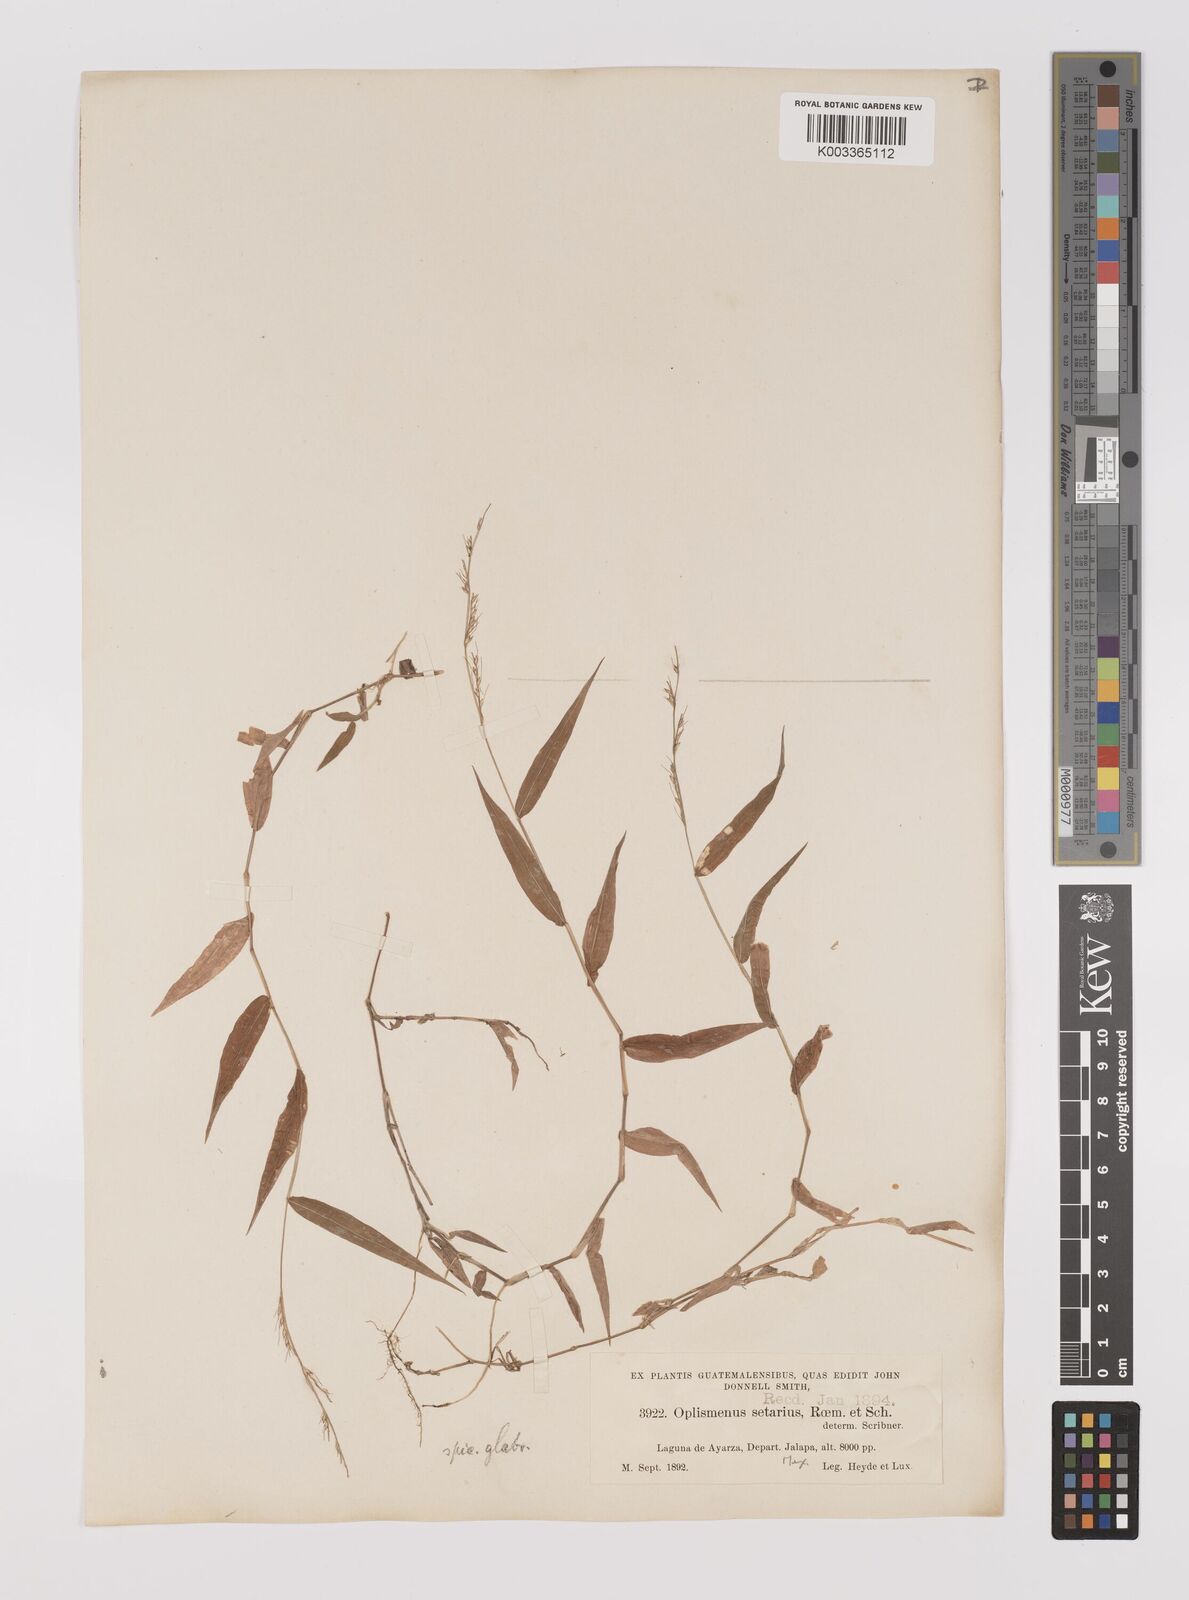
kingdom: Plantae
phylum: Tracheophyta
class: Liliopsida
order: Poales
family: Poaceae
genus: Oplismenus
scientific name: Oplismenus hirtellus
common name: Basketgrass
